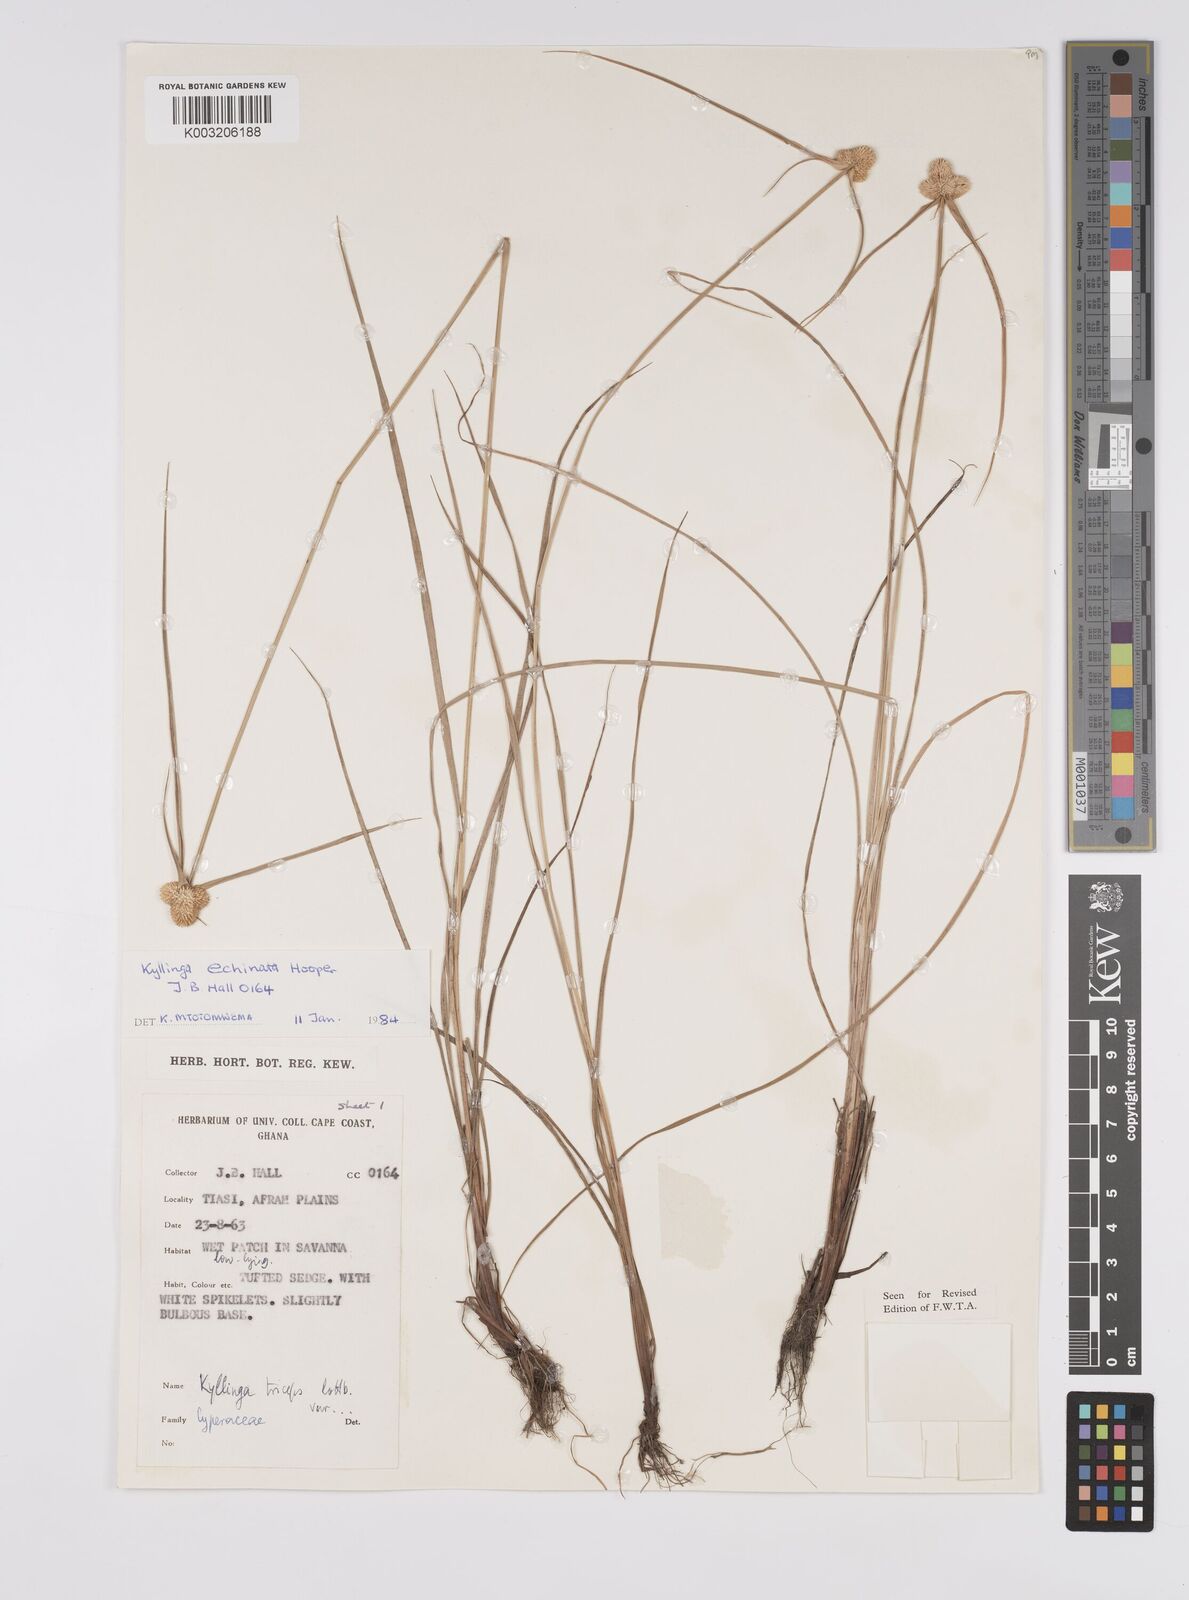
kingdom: Plantae
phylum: Tracheophyta
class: Liliopsida
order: Poales
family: Cyperaceae
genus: Cyperus
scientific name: Cyperus
